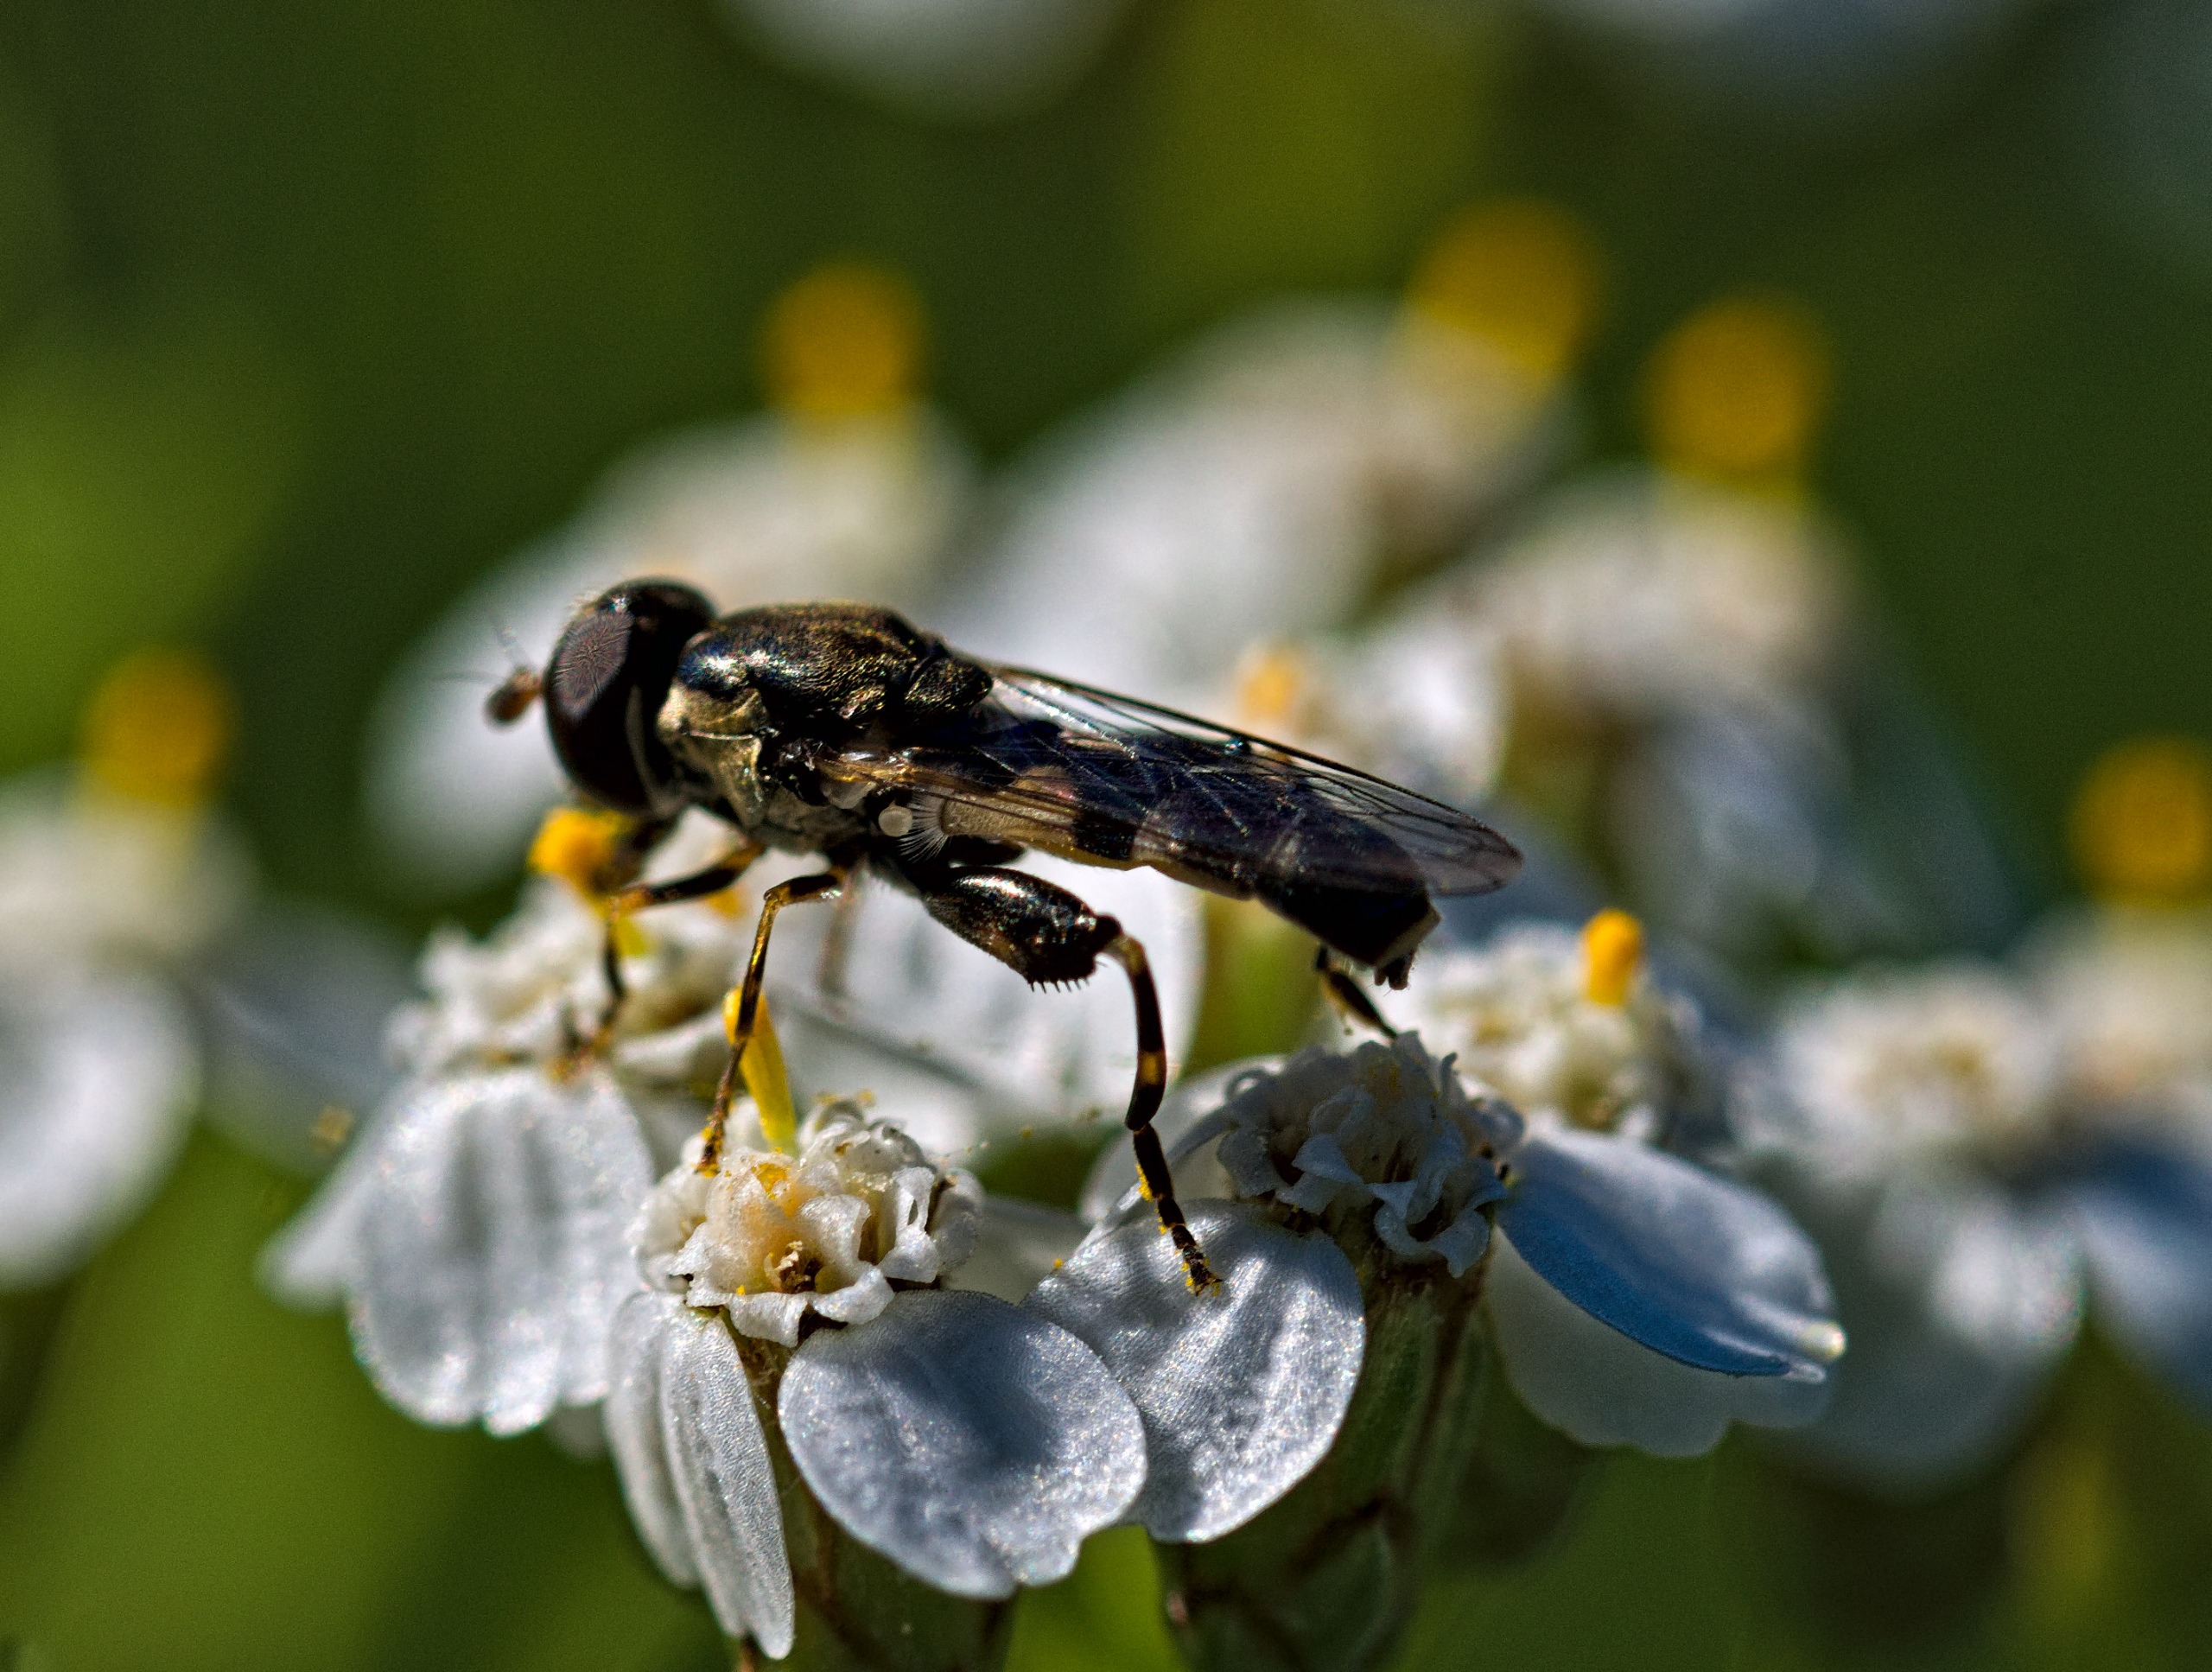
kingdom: Animalia
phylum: Arthropoda
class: Insecta
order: Diptera
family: Syrphidae
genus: Syritta
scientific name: Syritta pipiens
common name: Kompost-svirreflue
